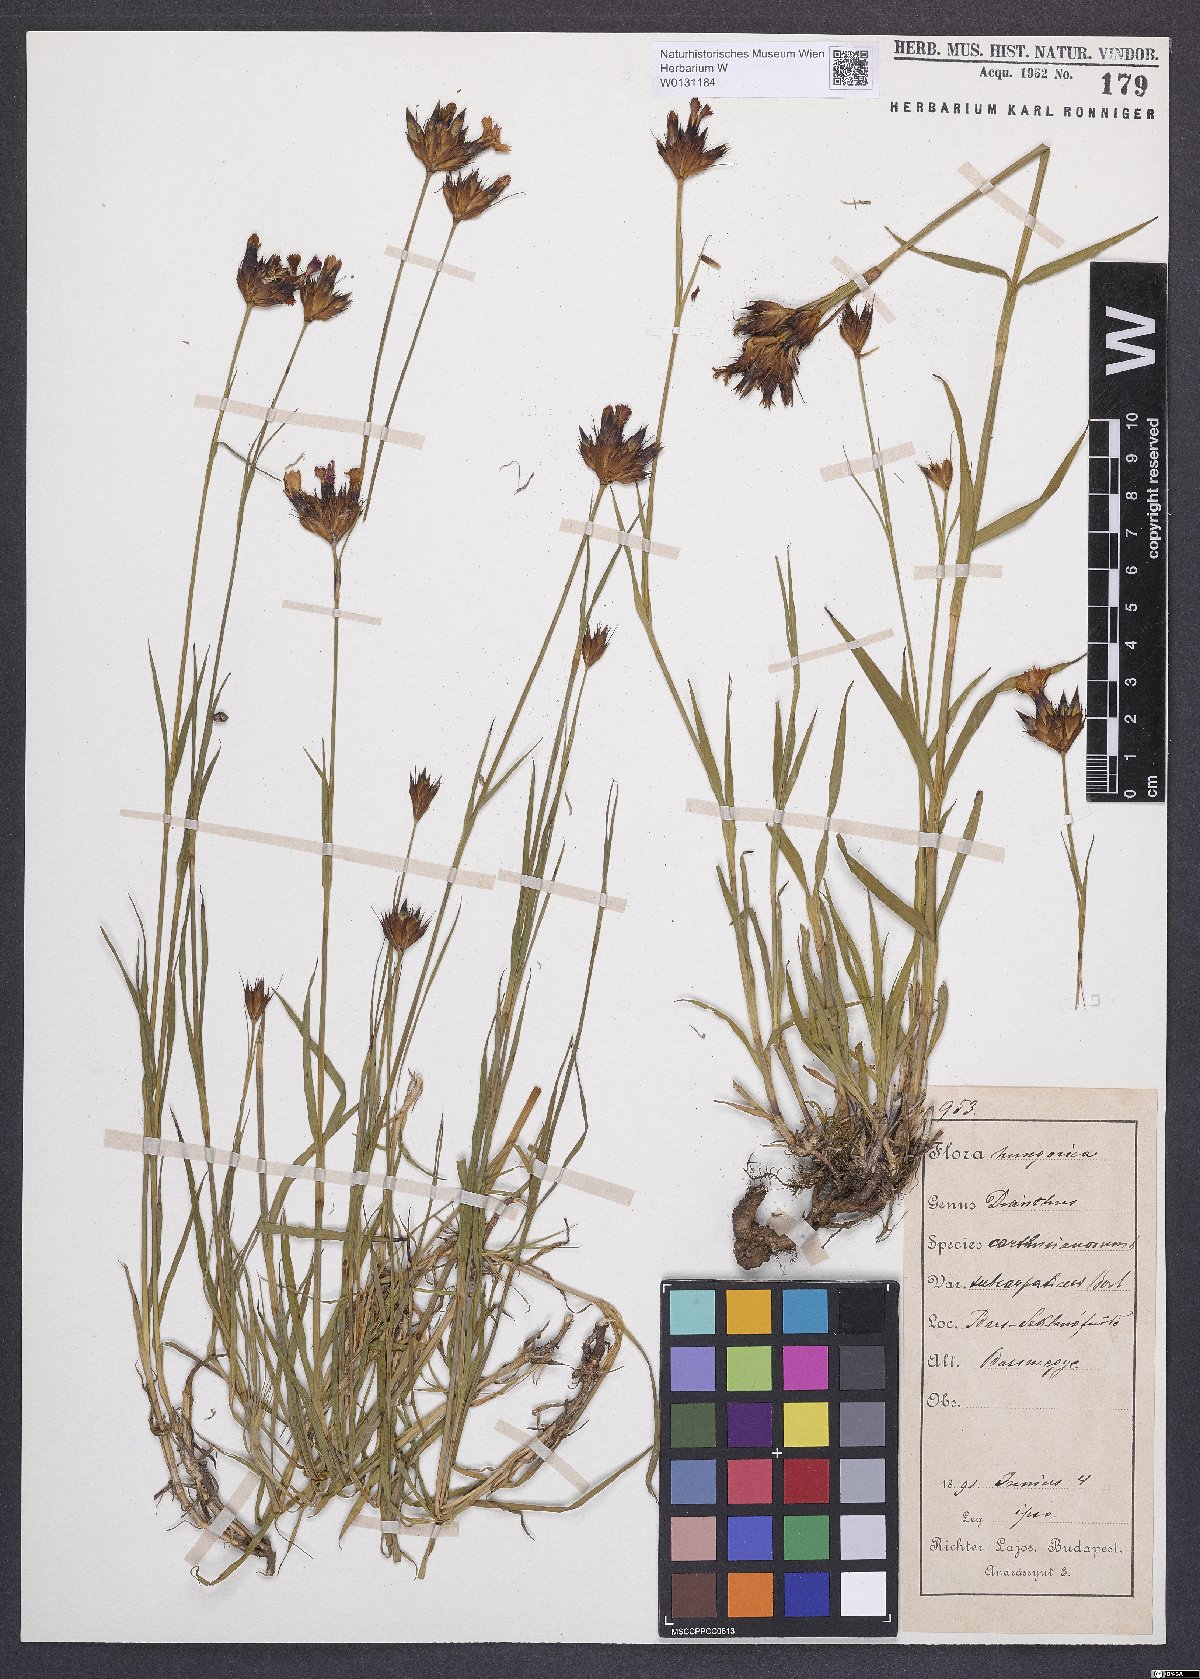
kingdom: Plantae
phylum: Tracheophyta
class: Magnoliopsida
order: Caryophyllales
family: Caryophyllaceae
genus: Dianthus
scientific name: Dianthus carthusianorum
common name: Carthusian pink
